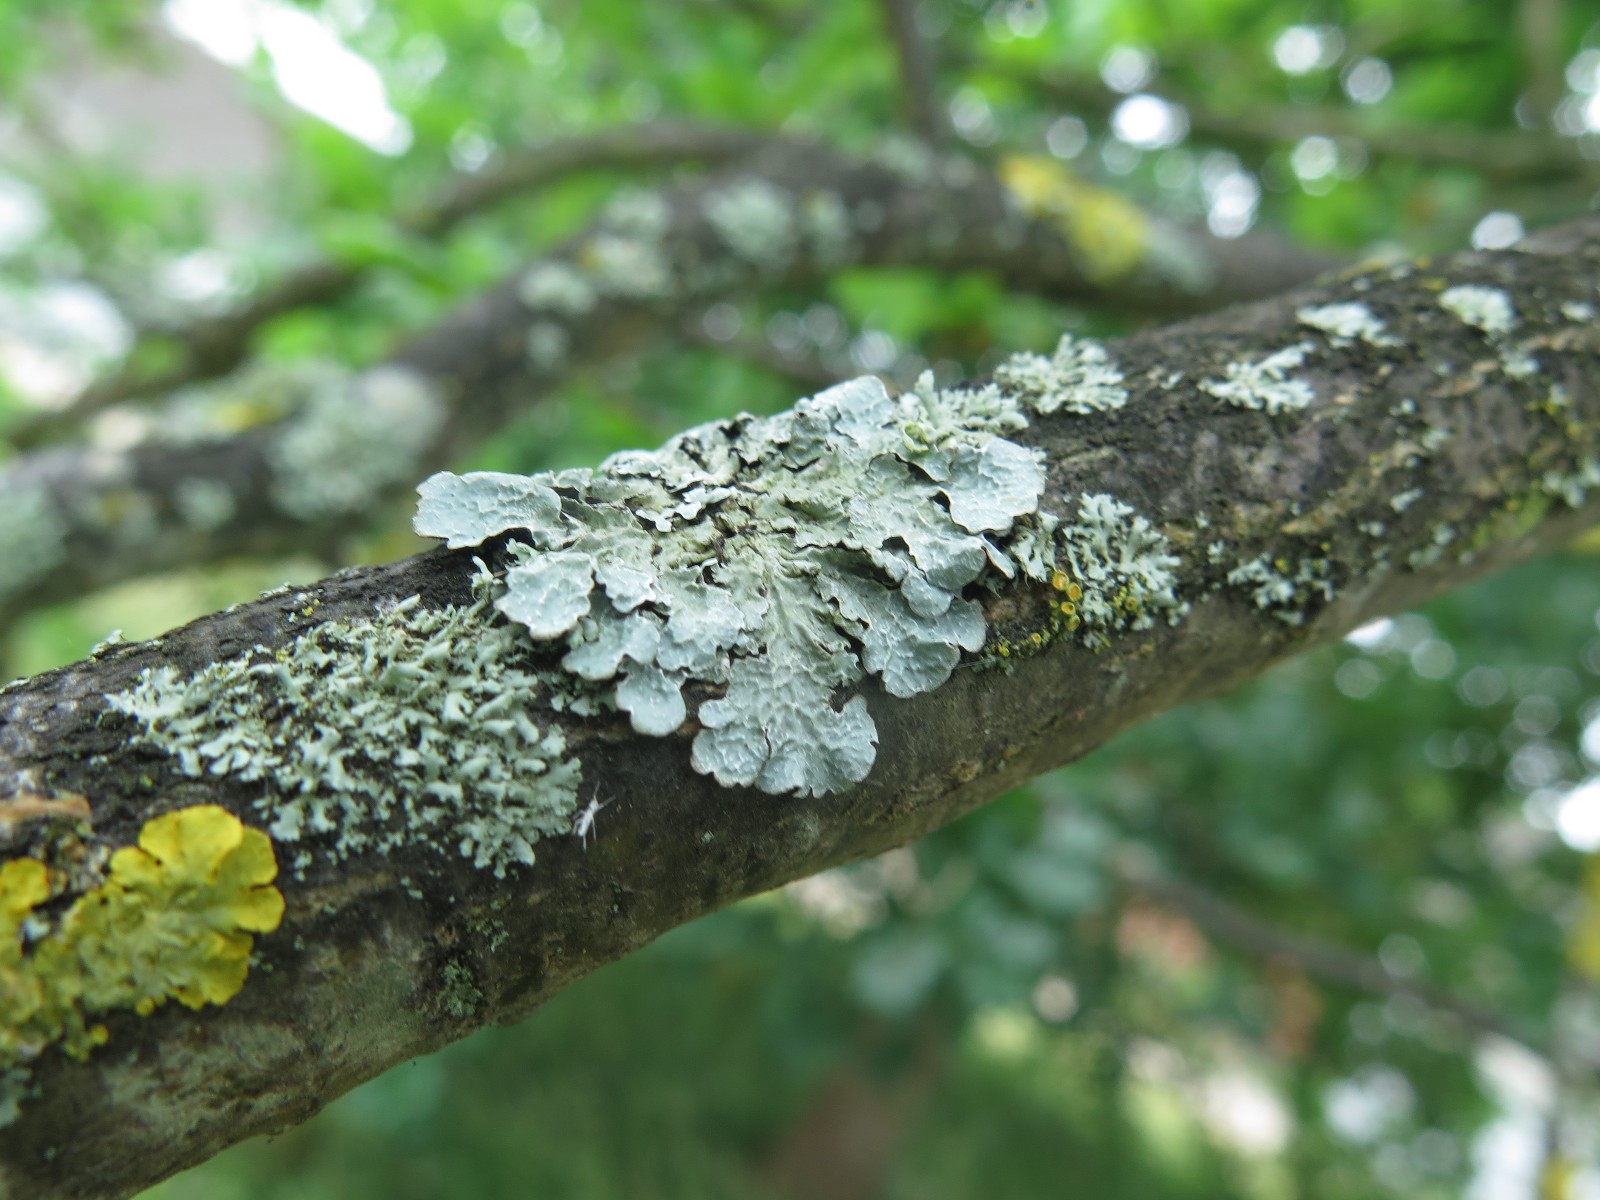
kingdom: Fungi
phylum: Ascomycota
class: Lecanoromycetes
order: Lecanorales
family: Parmeliaceae
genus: Parmelia
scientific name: Parmelia sulcata
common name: rynket skållav
